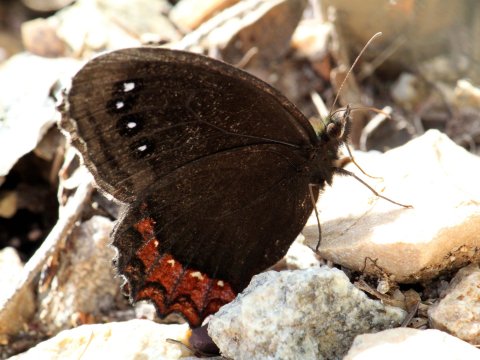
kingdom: Animalia
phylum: Arthropoda
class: Insecta
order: Lepidoptera
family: Nymphalidae
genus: Gyrocheilus
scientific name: Gyrocheilus patrobas
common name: Red-bordered Satyr
